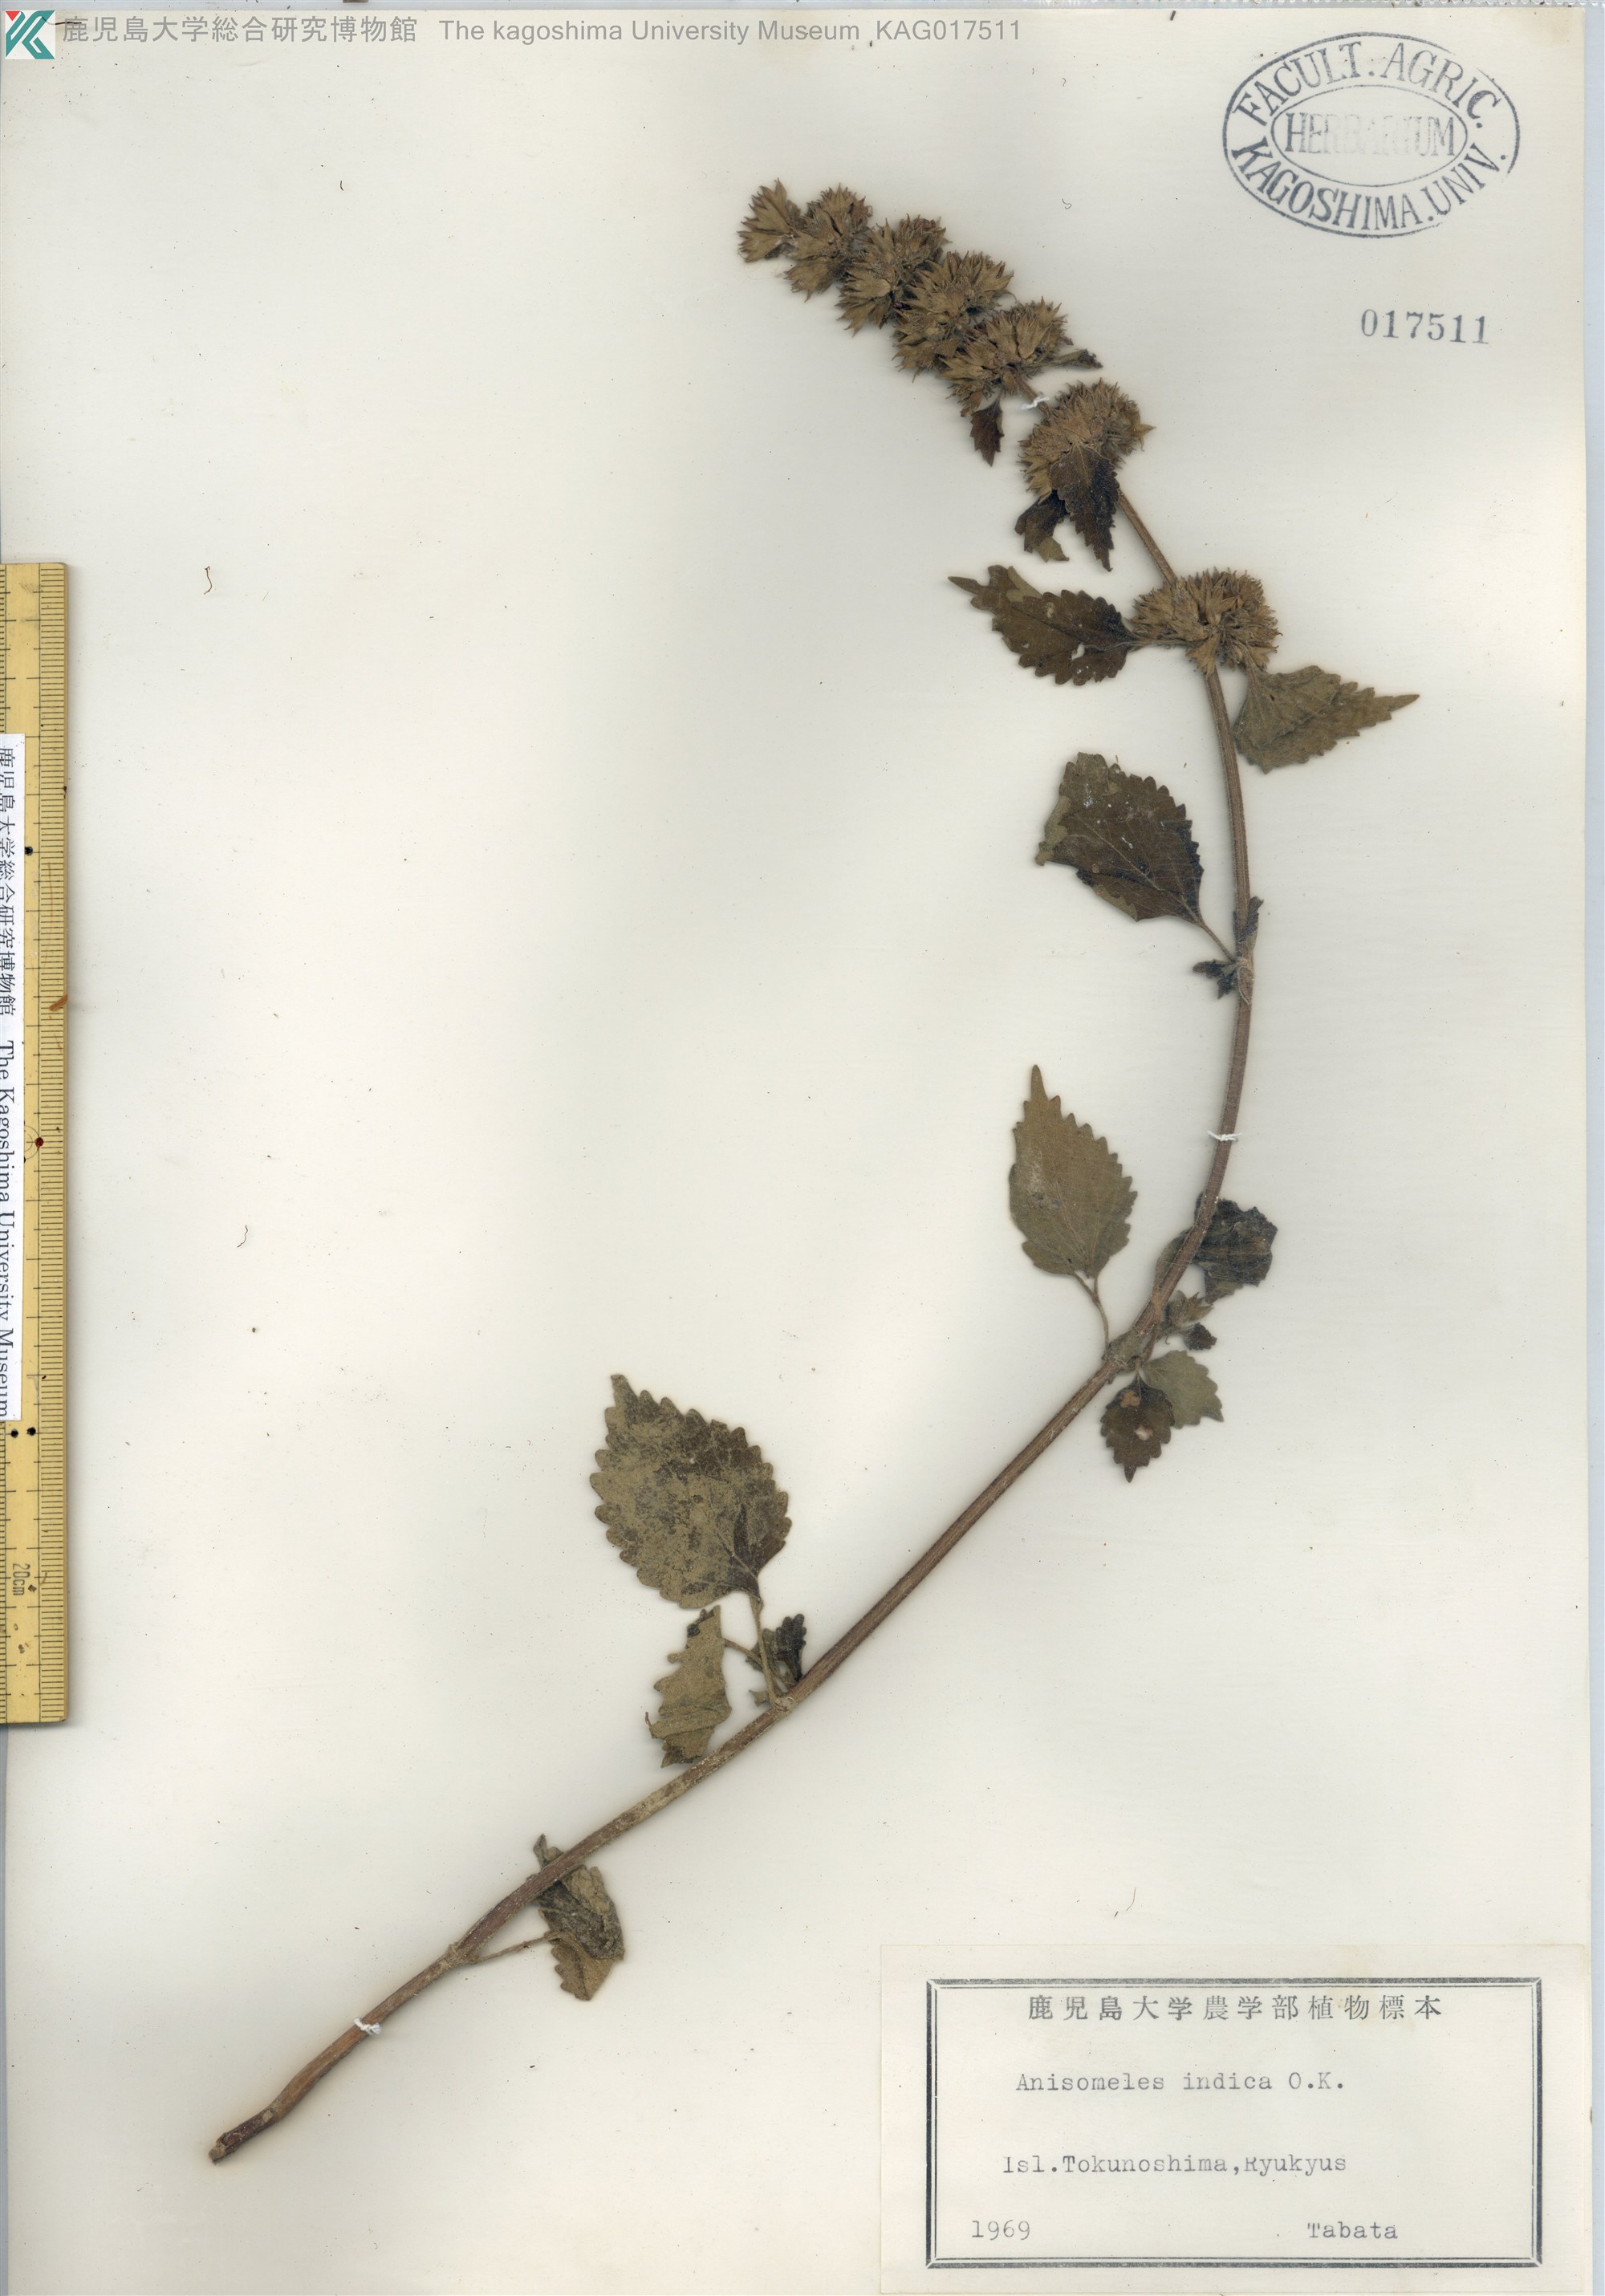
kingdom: Plantae
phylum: Tracheophyta
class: Magnoliopsida
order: Lamiales
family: Lamiaceae
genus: Anisomeles
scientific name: Anisomeles indica
